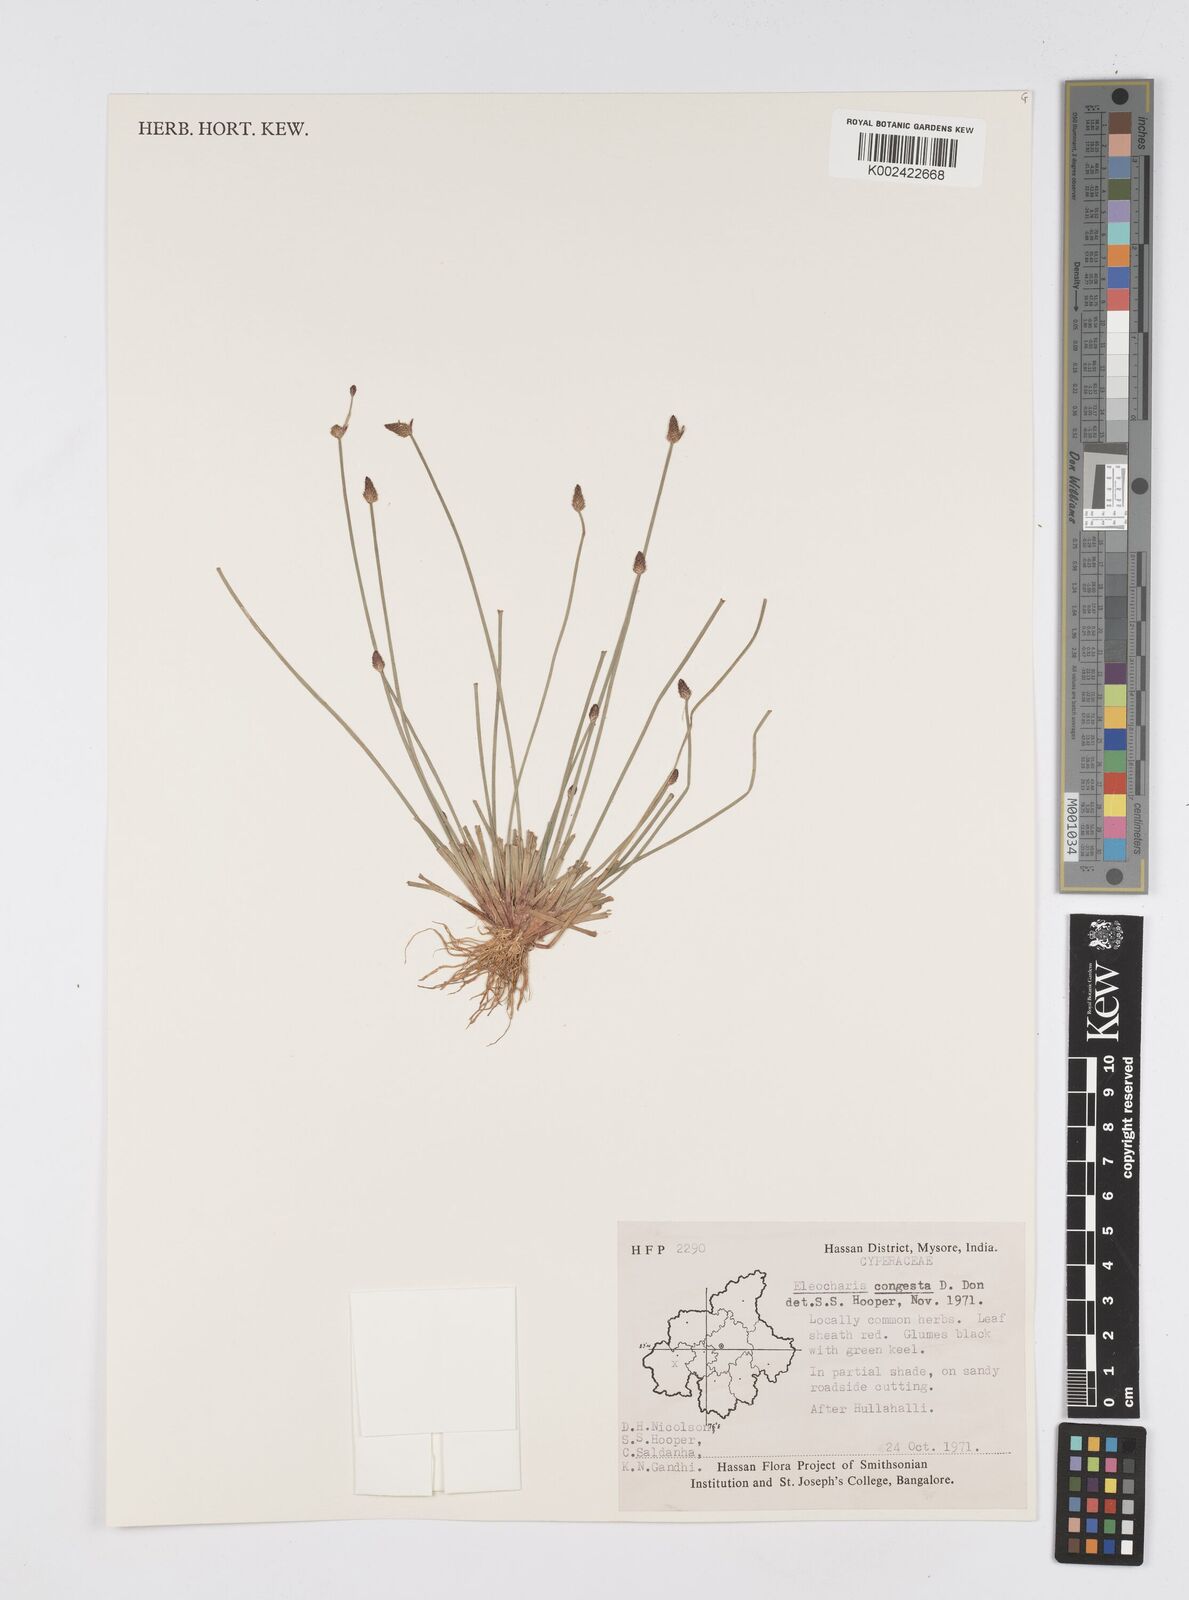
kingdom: Plantae
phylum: Tracheophyta
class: Liliopsida
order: Poales
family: Cyperaceae
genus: Eleocharis
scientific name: Eleocharis congesta
